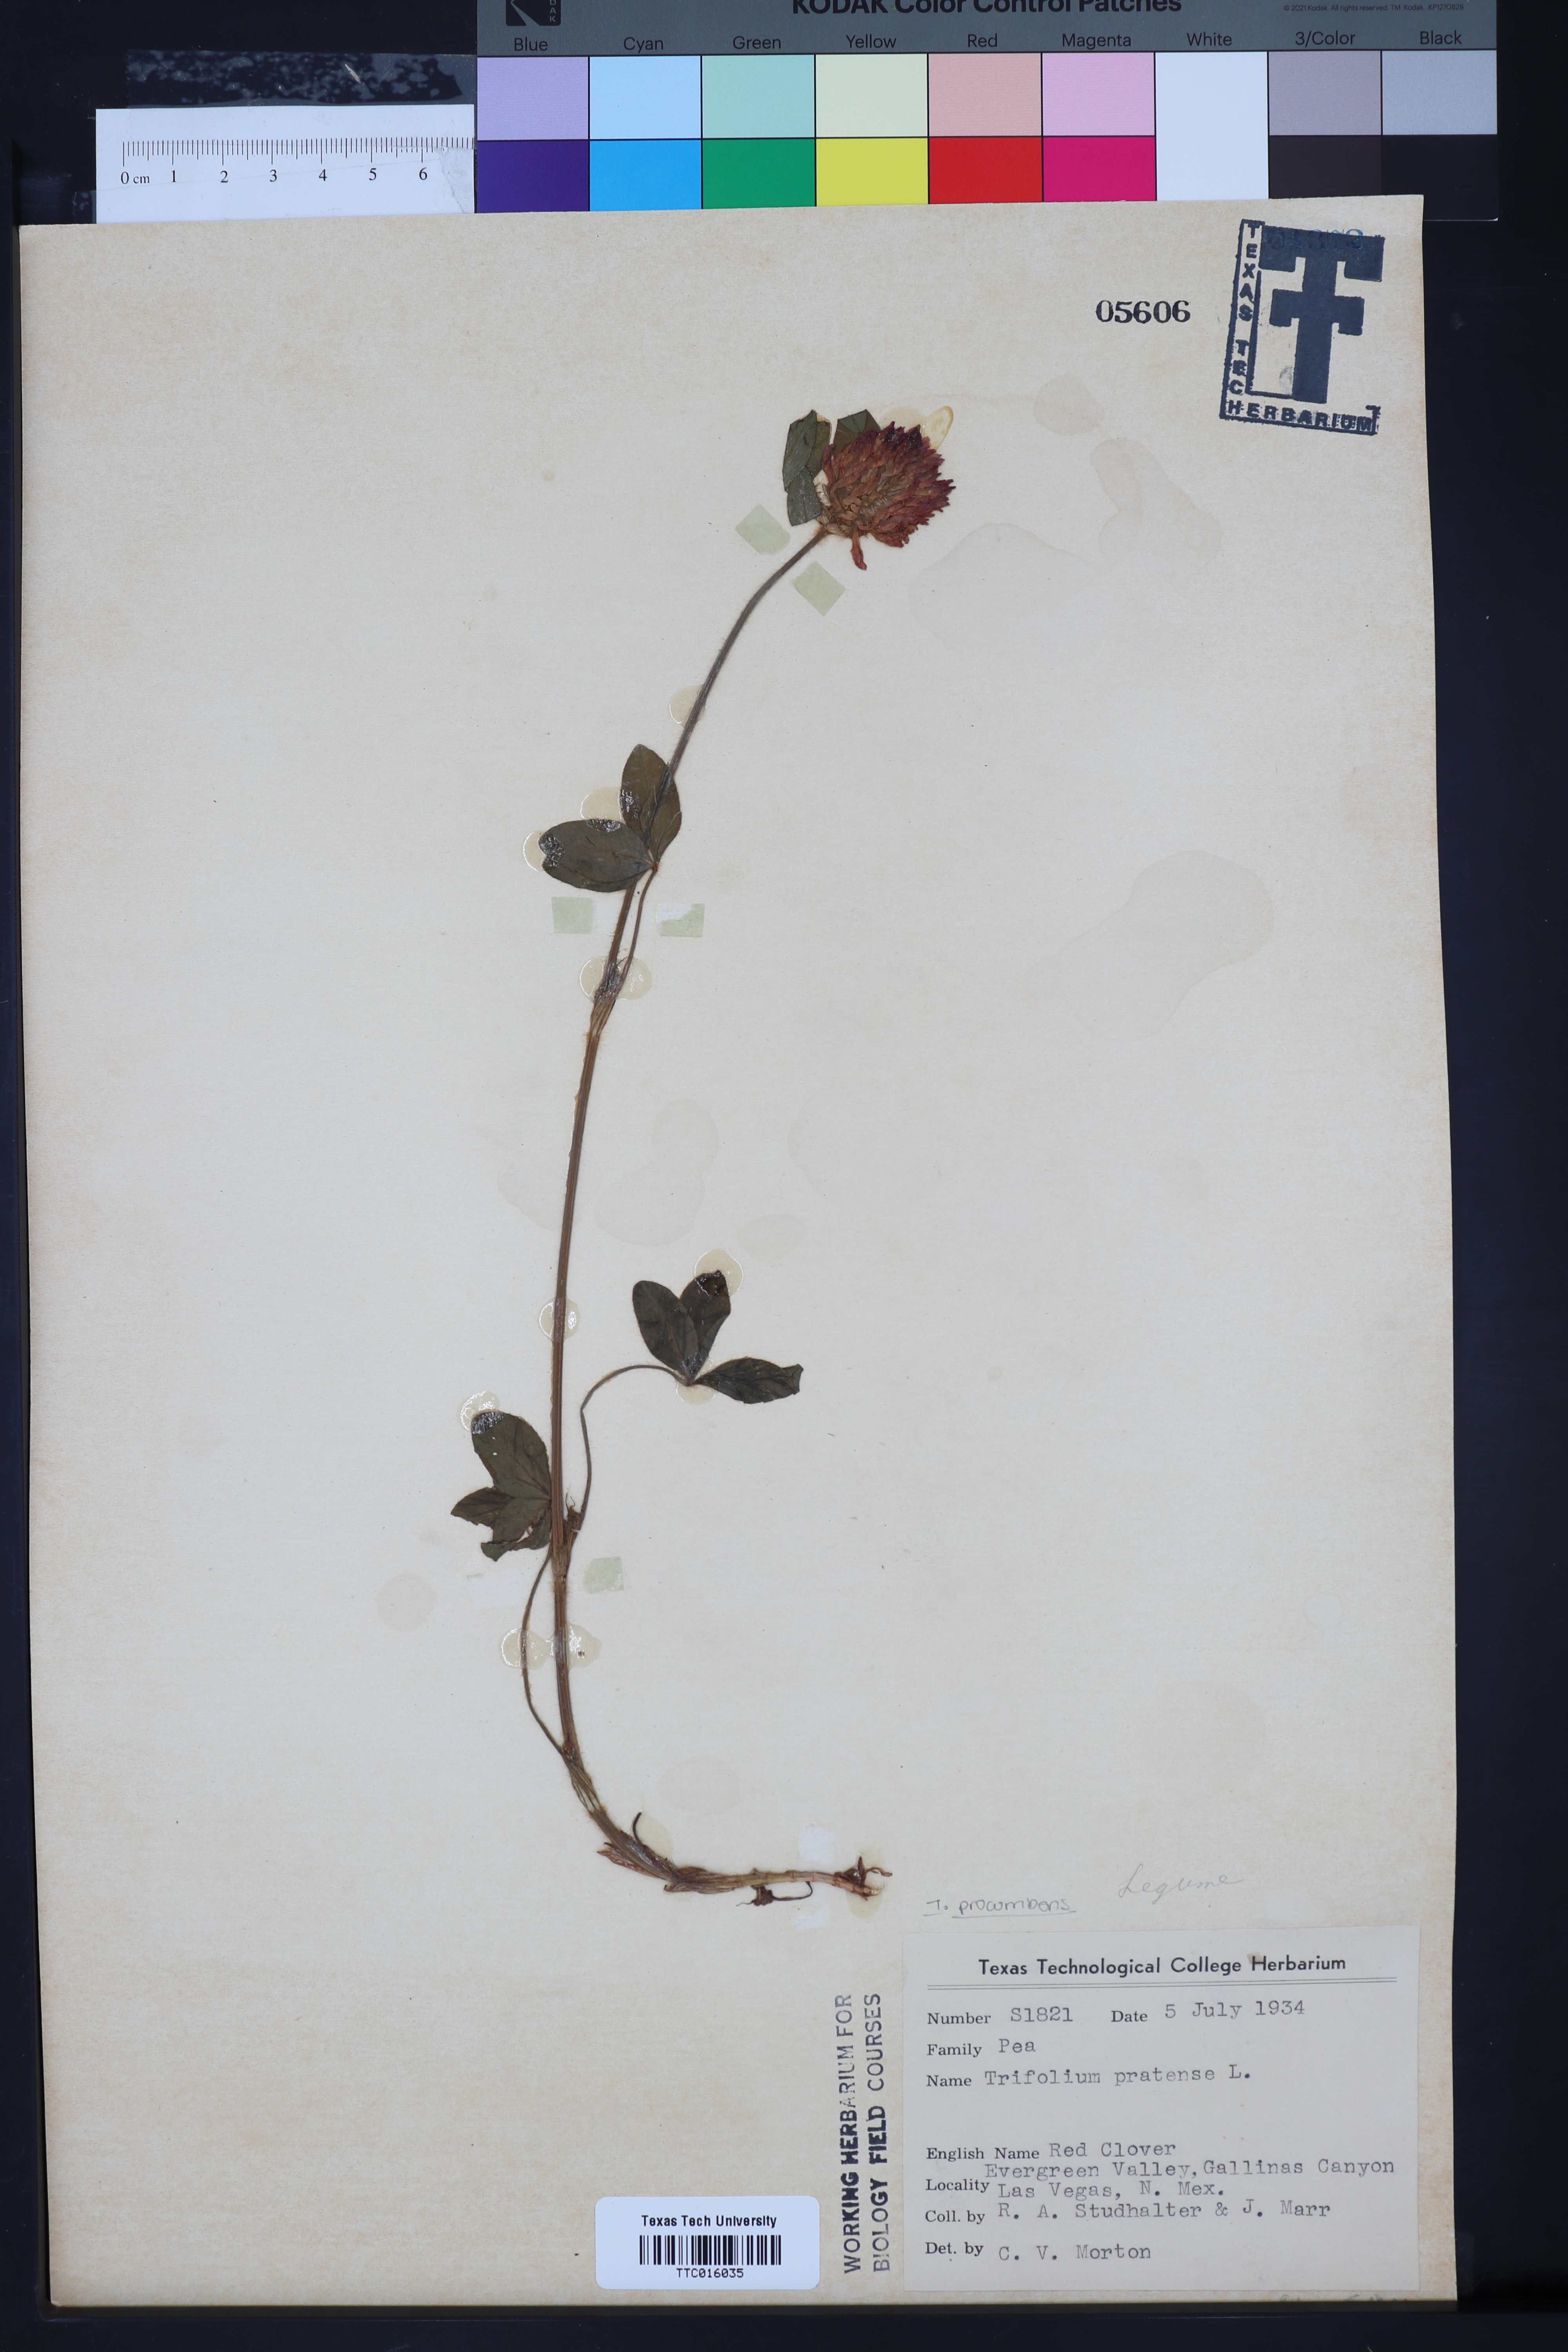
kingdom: Plantae
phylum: Tracheophyta
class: Magnoliopsida
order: Fabales
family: Fabaceae
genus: Trifolium
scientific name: Trifolium pratense
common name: Red clover
